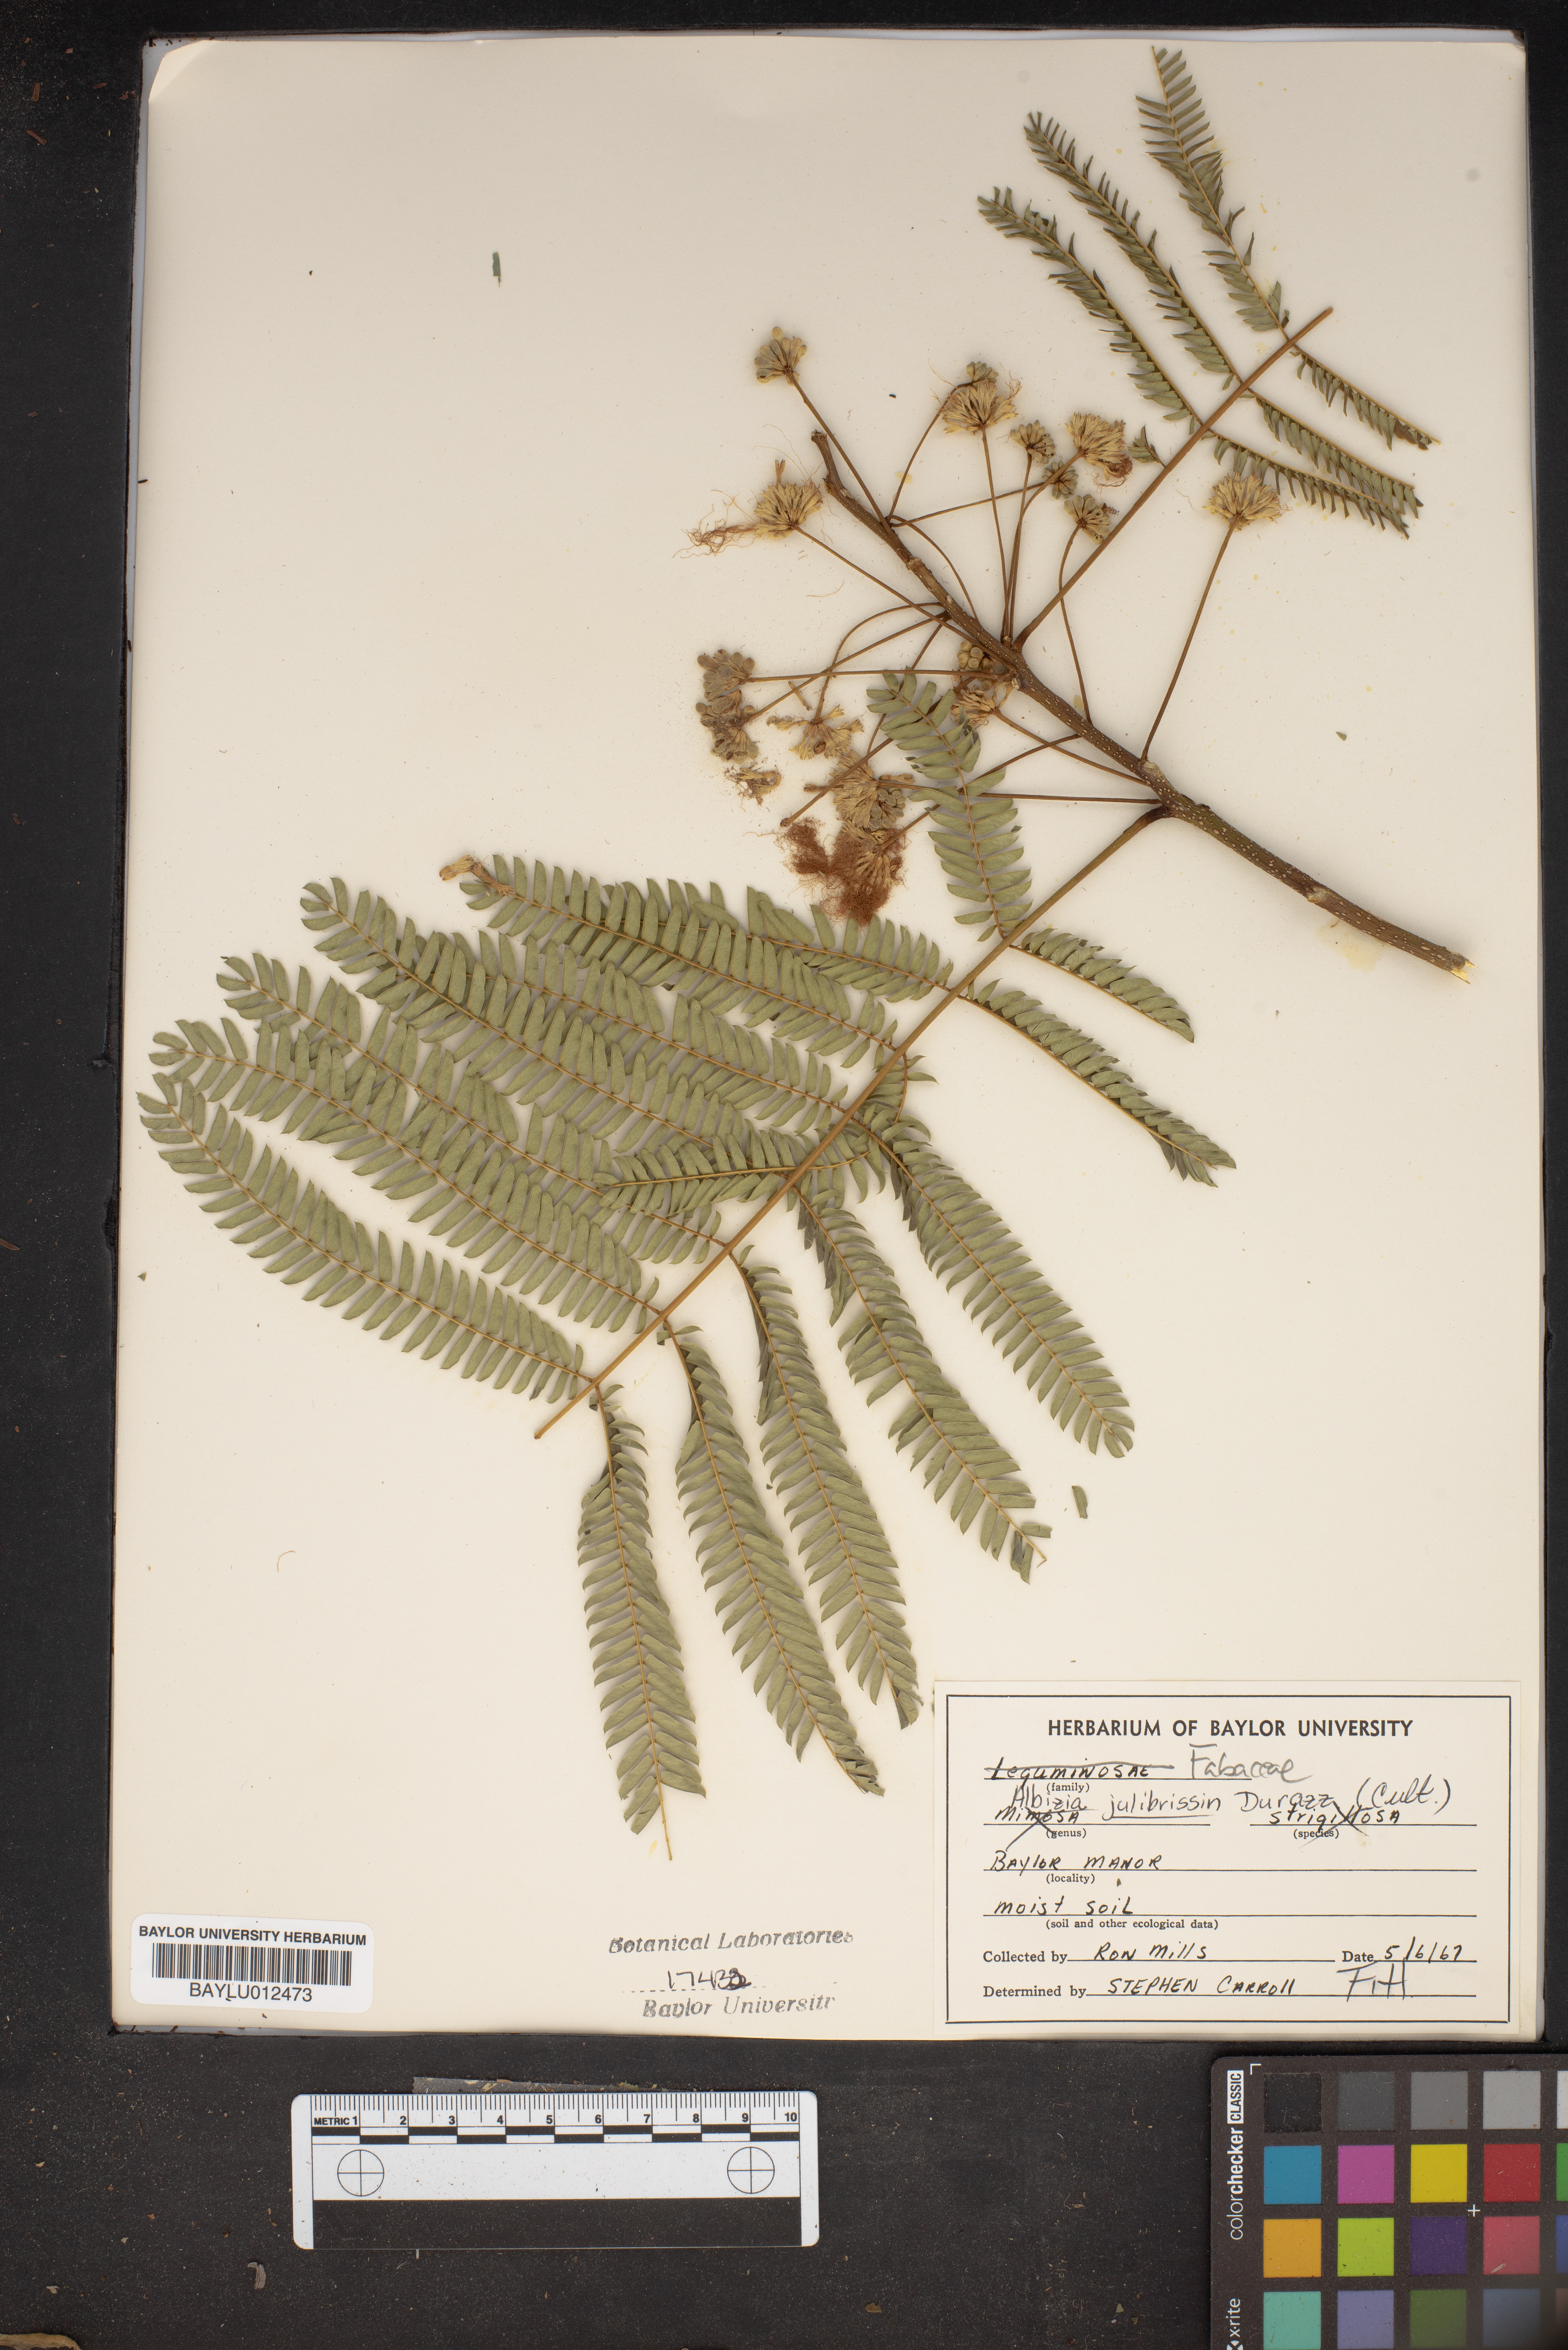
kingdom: Plantae
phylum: Tracheophyta
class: Magnoliopsida
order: Fabales
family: Fabaceae
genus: Albizia
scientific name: Albizia julibrissin
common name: Silktree
